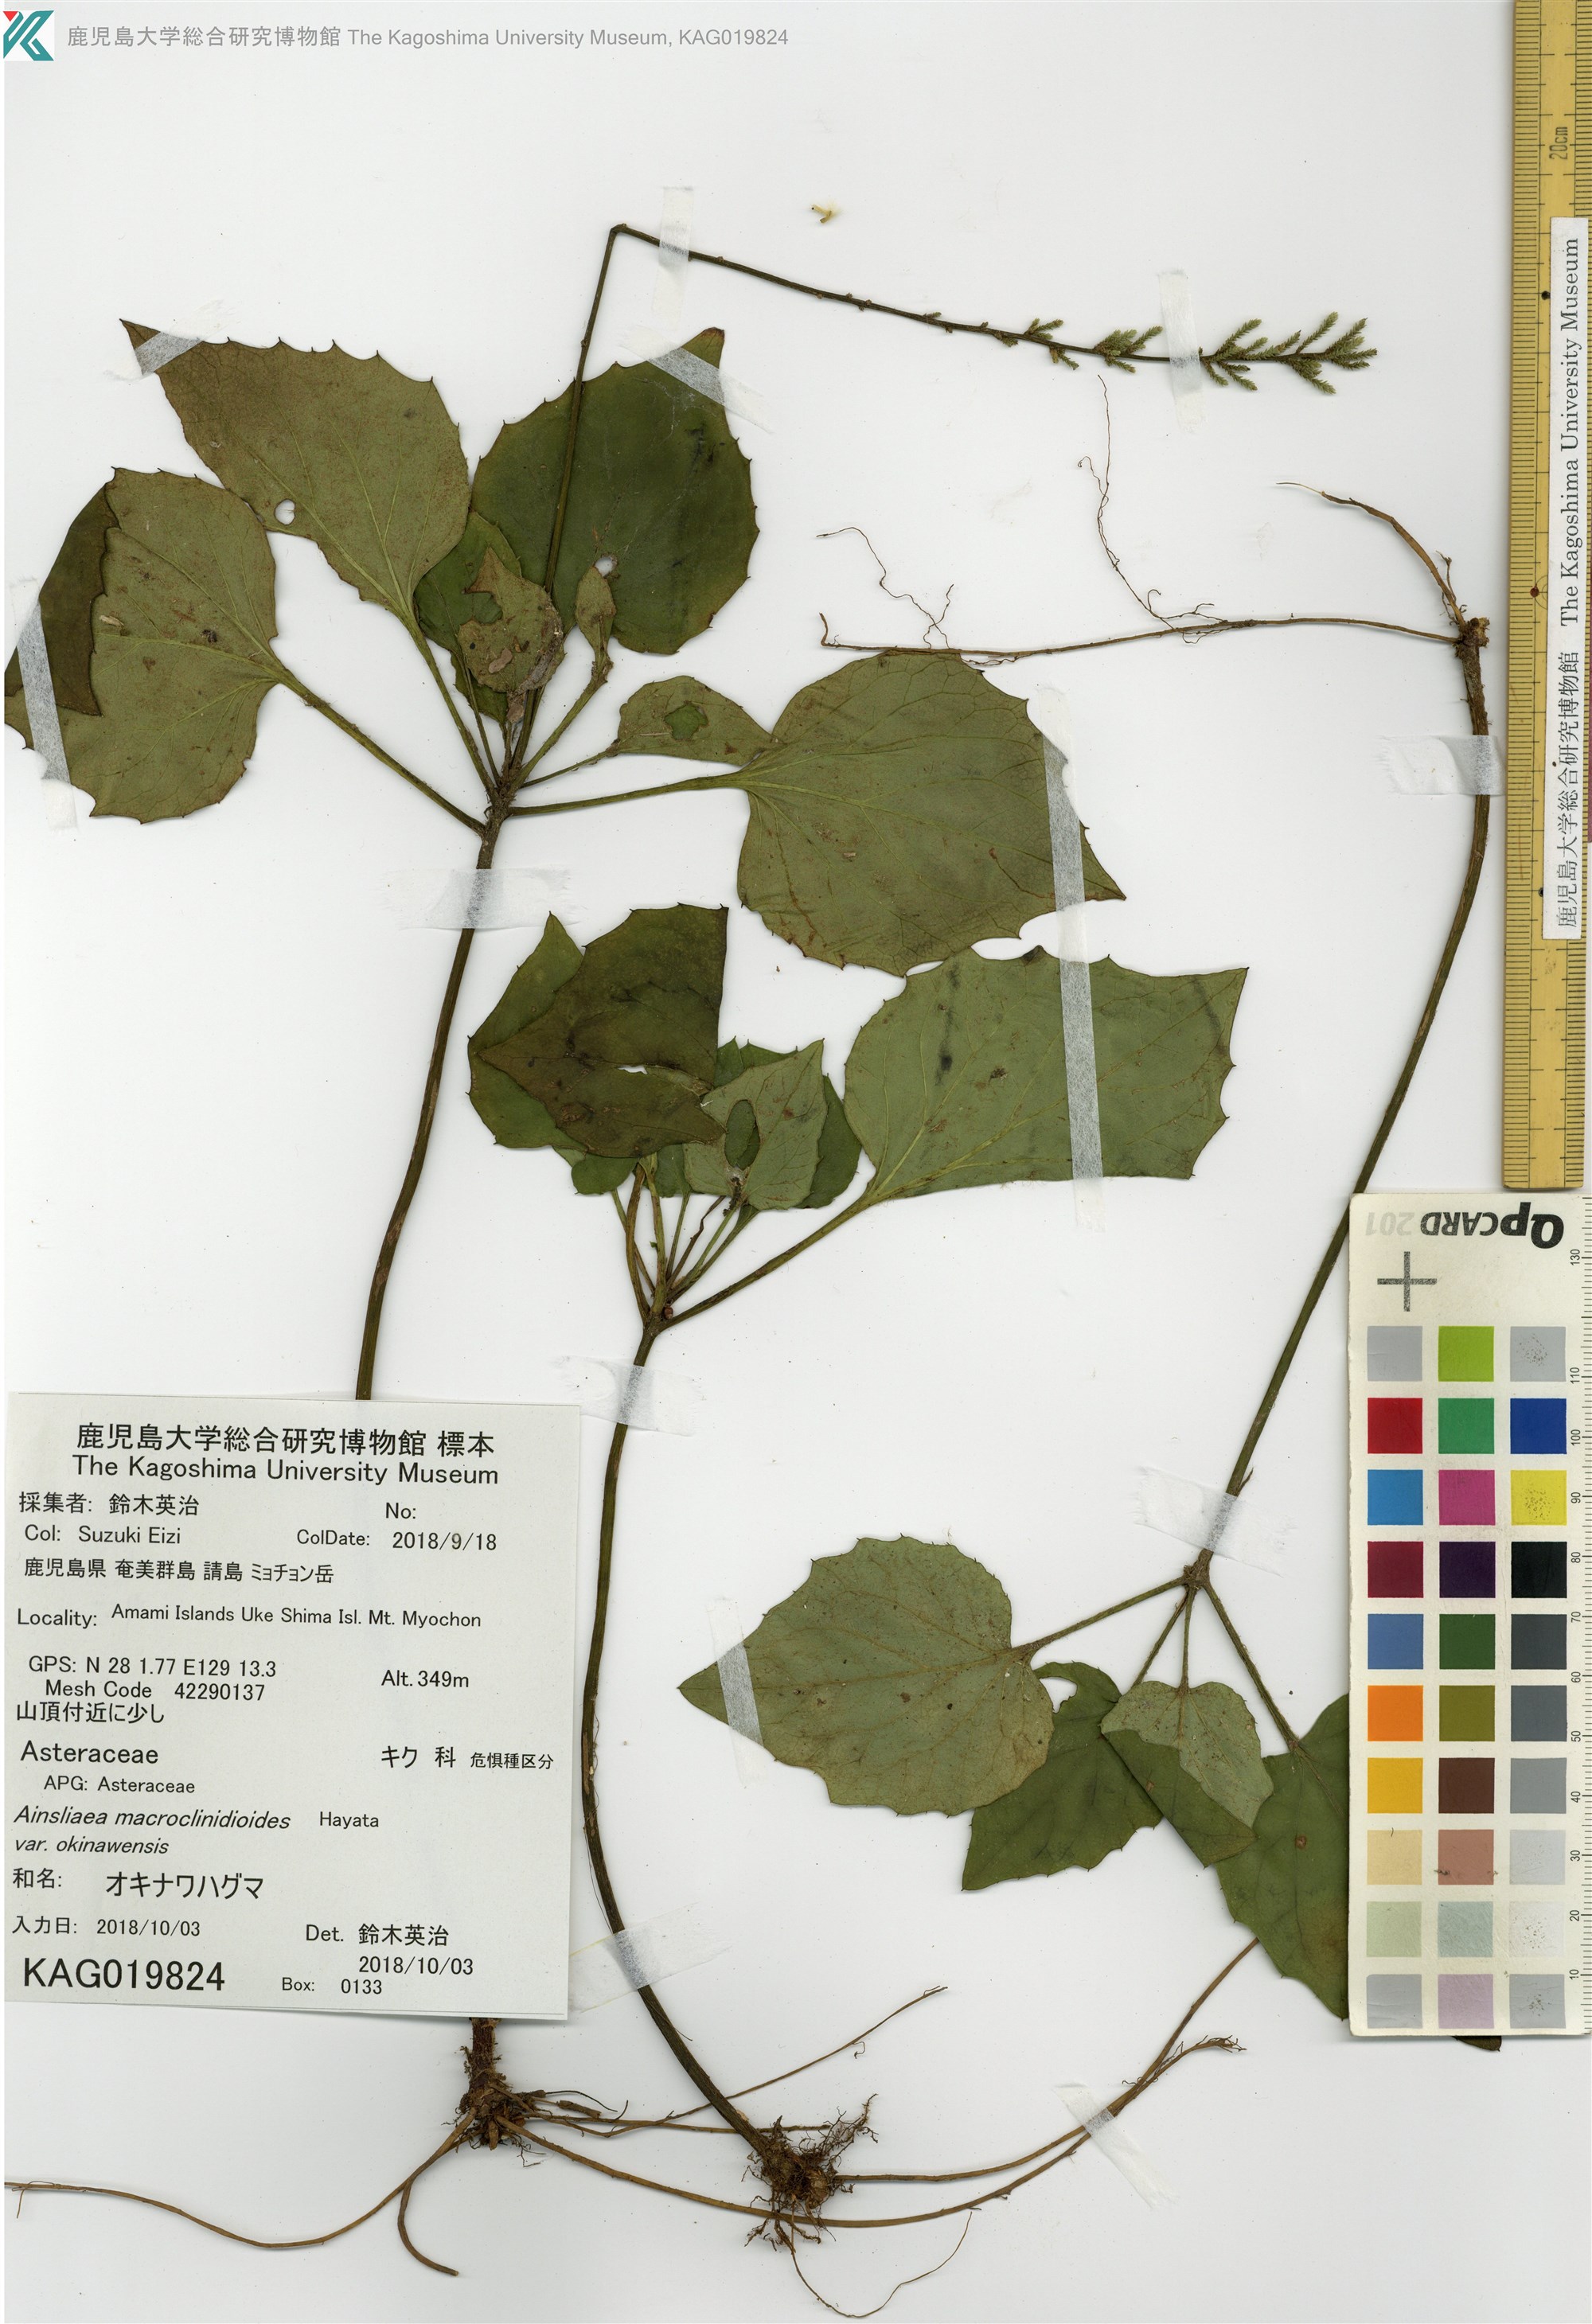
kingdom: Plantae
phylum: Tracheophyta
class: Magnoliopsida
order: Asterales
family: Asteraceae
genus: Ainsliaea
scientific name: Ainsliaea macroclinidioides
